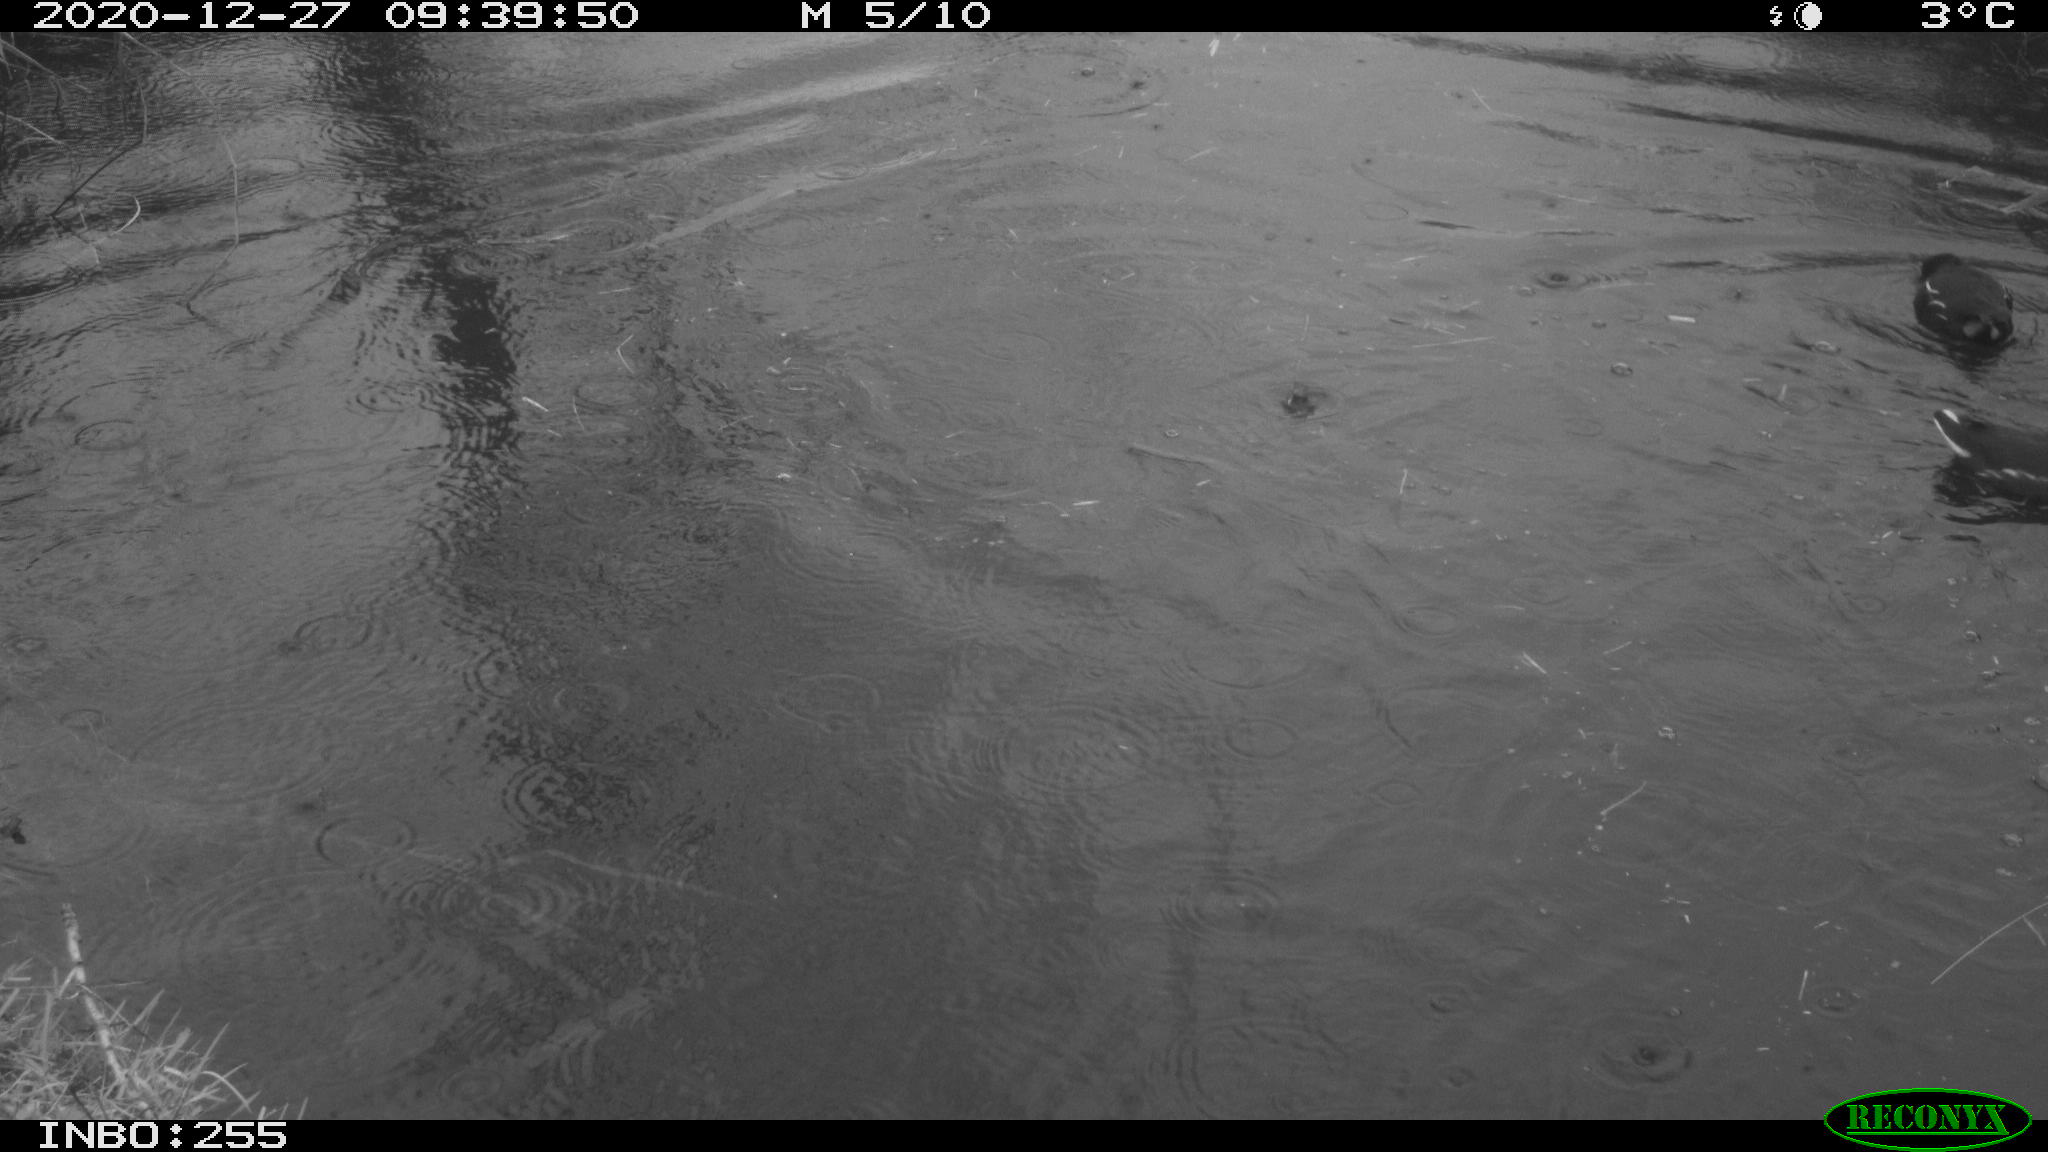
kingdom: Animalia
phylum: Chordata
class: Aves
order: Gruiformes
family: Rallidae
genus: Gallinula
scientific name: Gallinula chloropus
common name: Common moorhen
